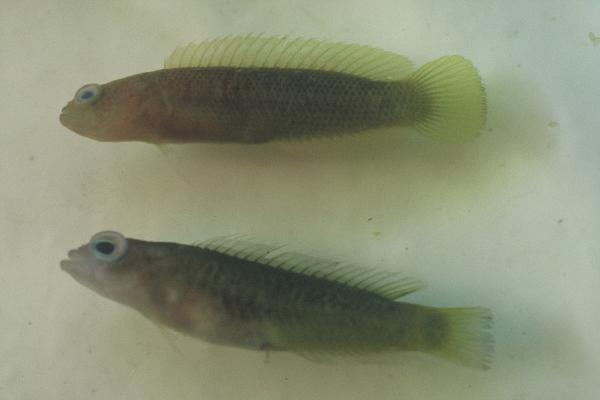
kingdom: Animalia
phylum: Chordata
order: Perciformes
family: Pseudochromidae
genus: Pseudochromis
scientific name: Pseudochromis
